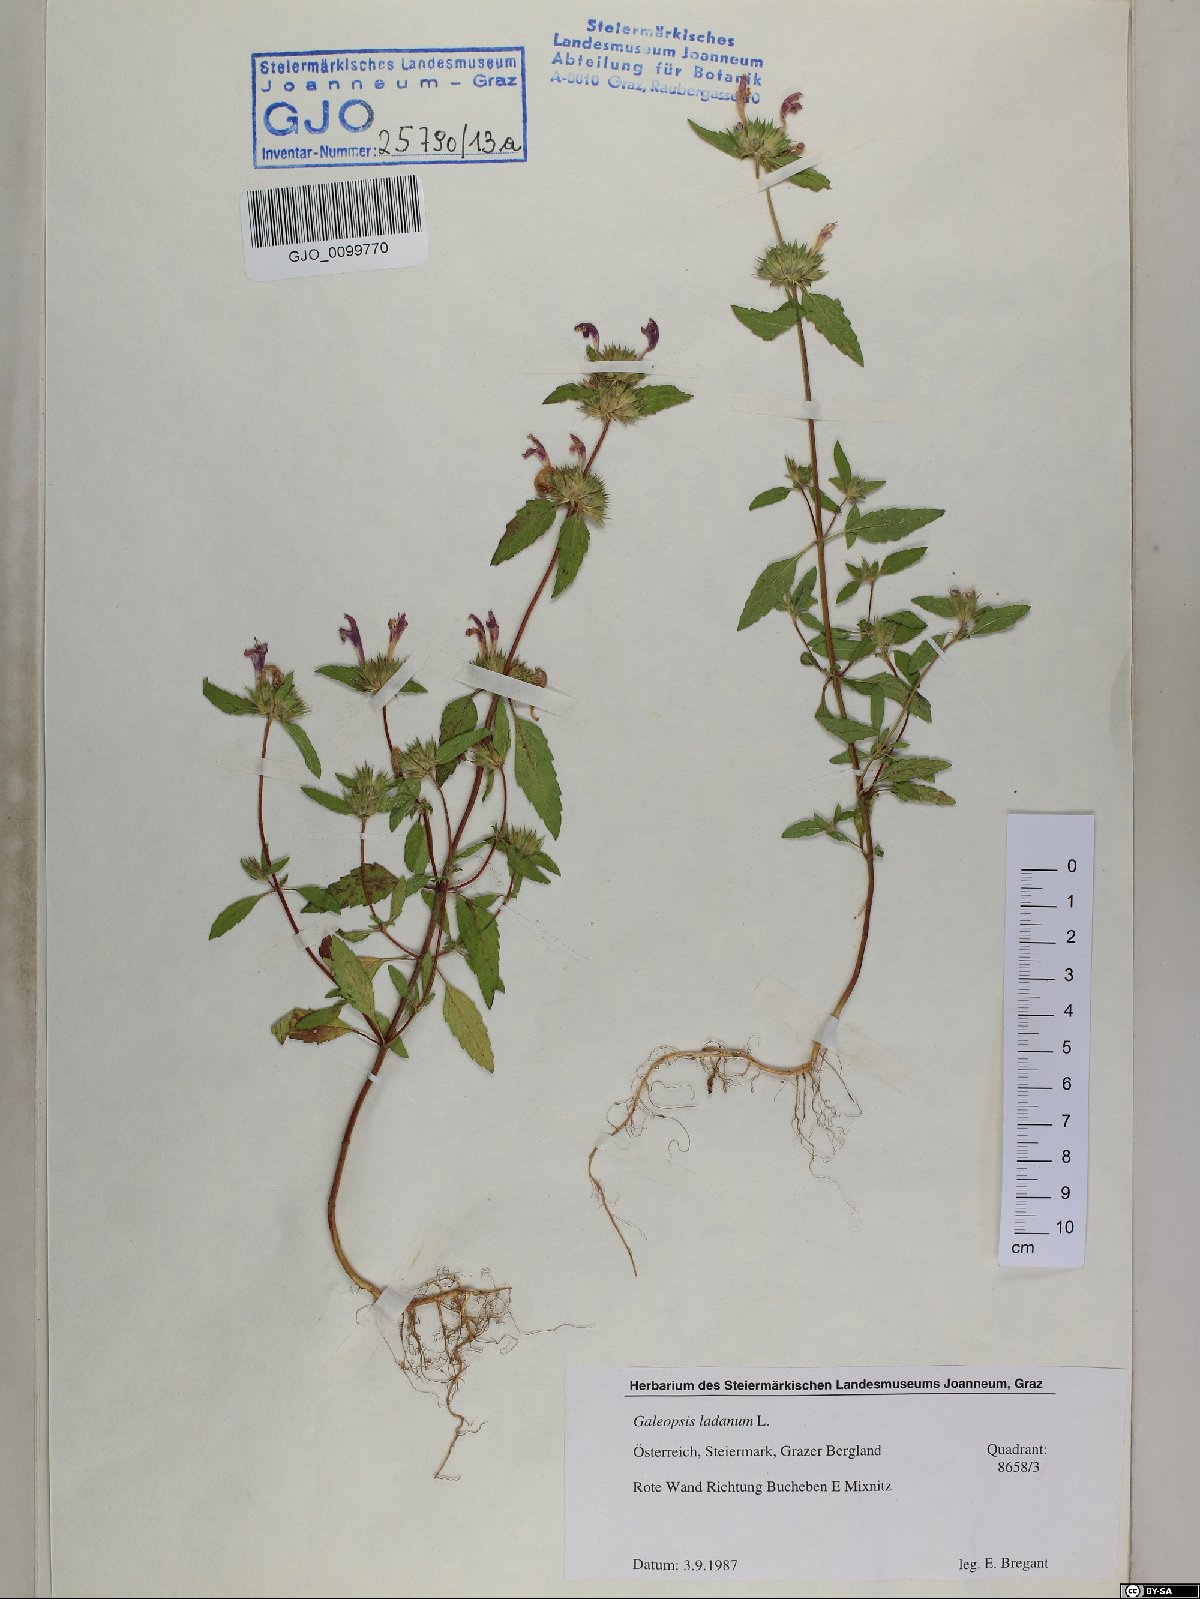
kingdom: Plantae
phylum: Tracheophyta
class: Magnoliopsida
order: Lamiales
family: Lamiaceae
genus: Galeopsis
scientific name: Galeopsis ladanum
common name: Broad-leaved hemp-nettle
